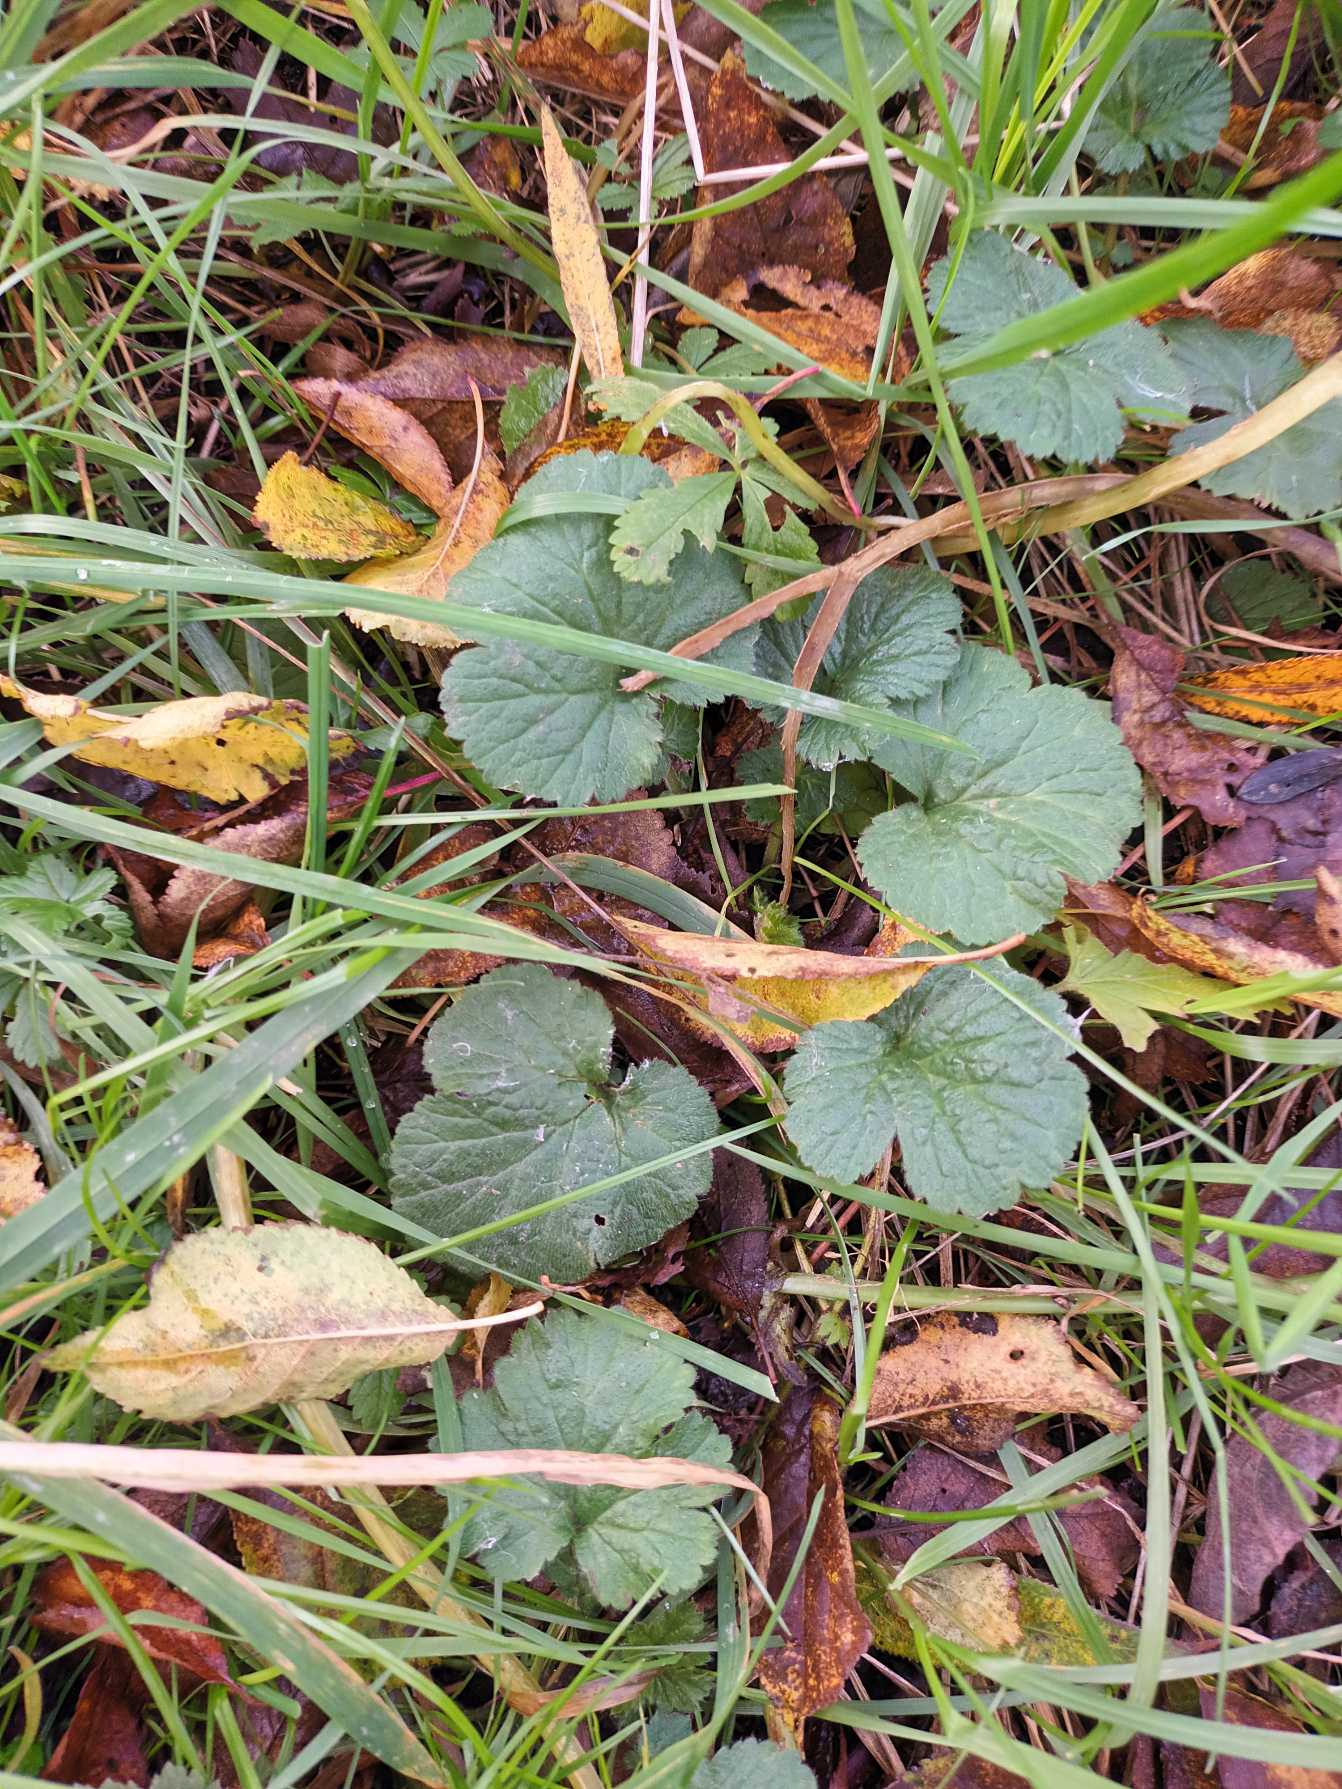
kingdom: Plantae
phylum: Tracheophyta
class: Magnoliopsida
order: Rosales
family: Rosaceae
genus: Geum
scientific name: Geum urbanum
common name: Feber-nellikerod
